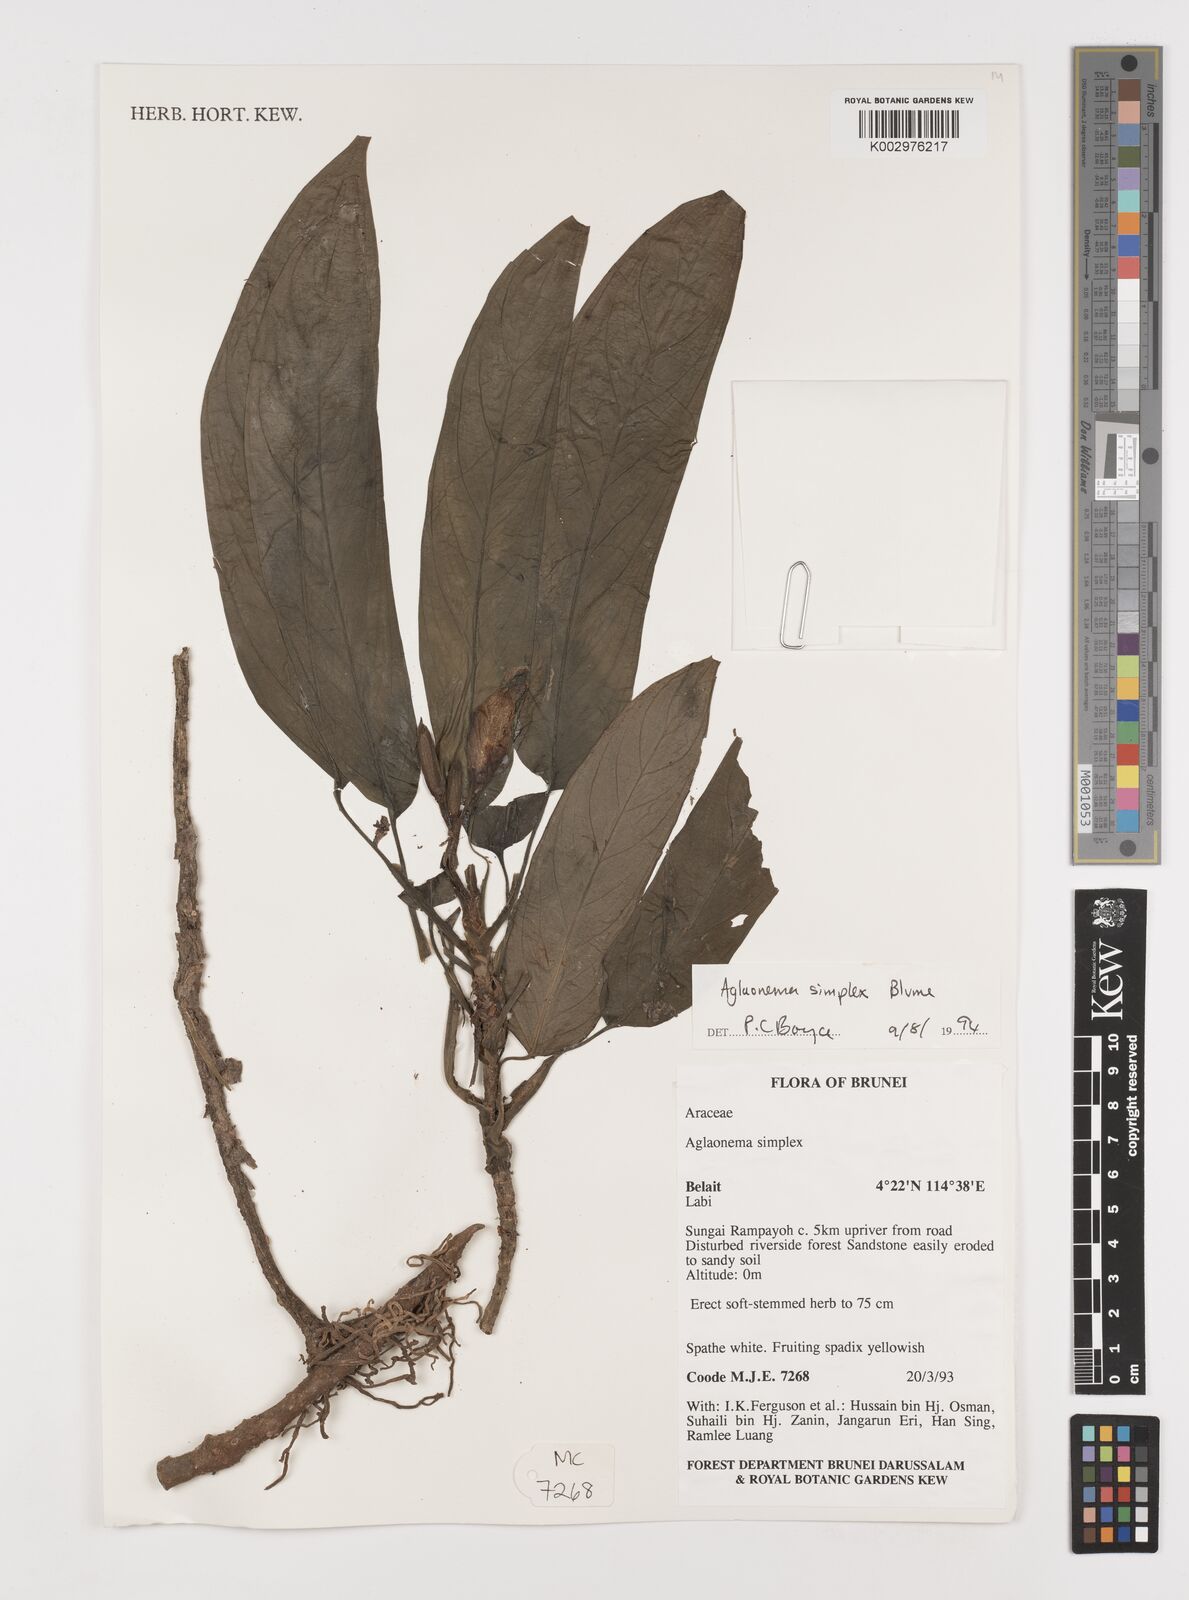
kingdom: Plantae
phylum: Tracheophyta
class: Liliopsida
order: Alismatales
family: Araceae
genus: Aglaonema
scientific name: Aglaonema simplex
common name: Malayan-sword
